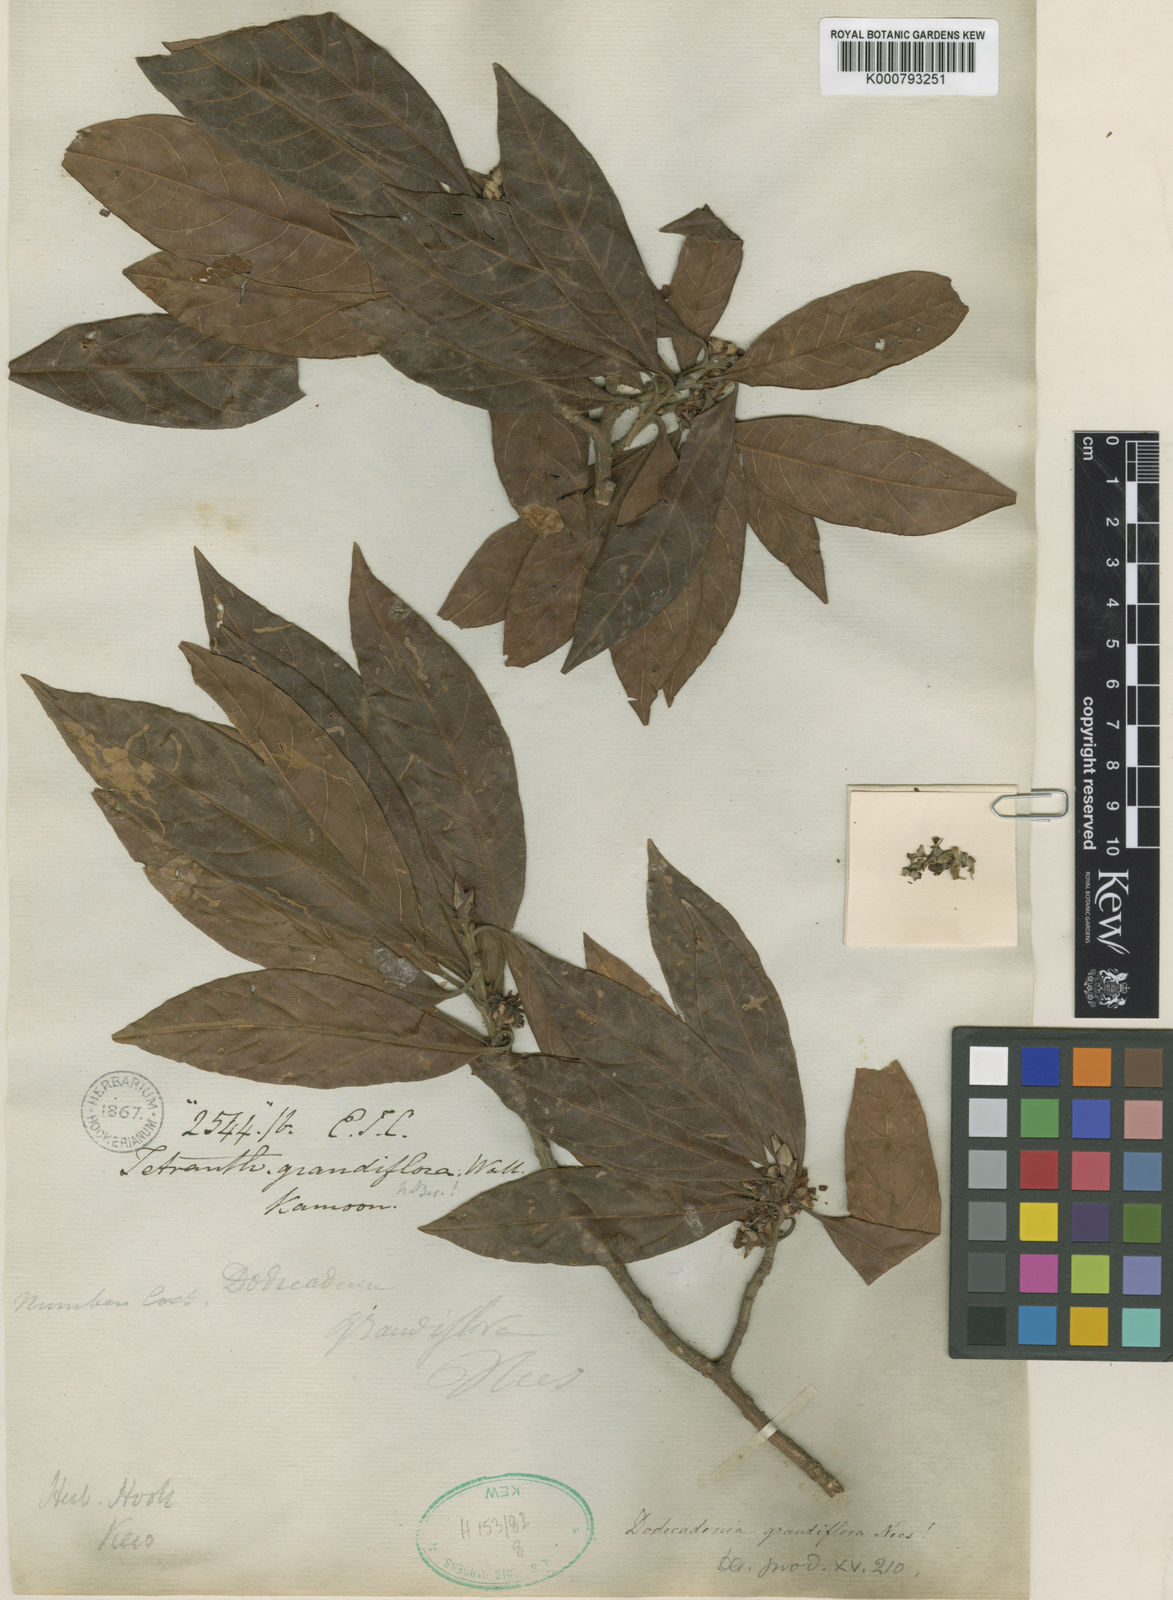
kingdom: Plantae
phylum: Tracheophyta
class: Magnoliopsida
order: Laurales
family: Lauraceae
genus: Dodecadenia
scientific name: Dodecadenia grandiflora
